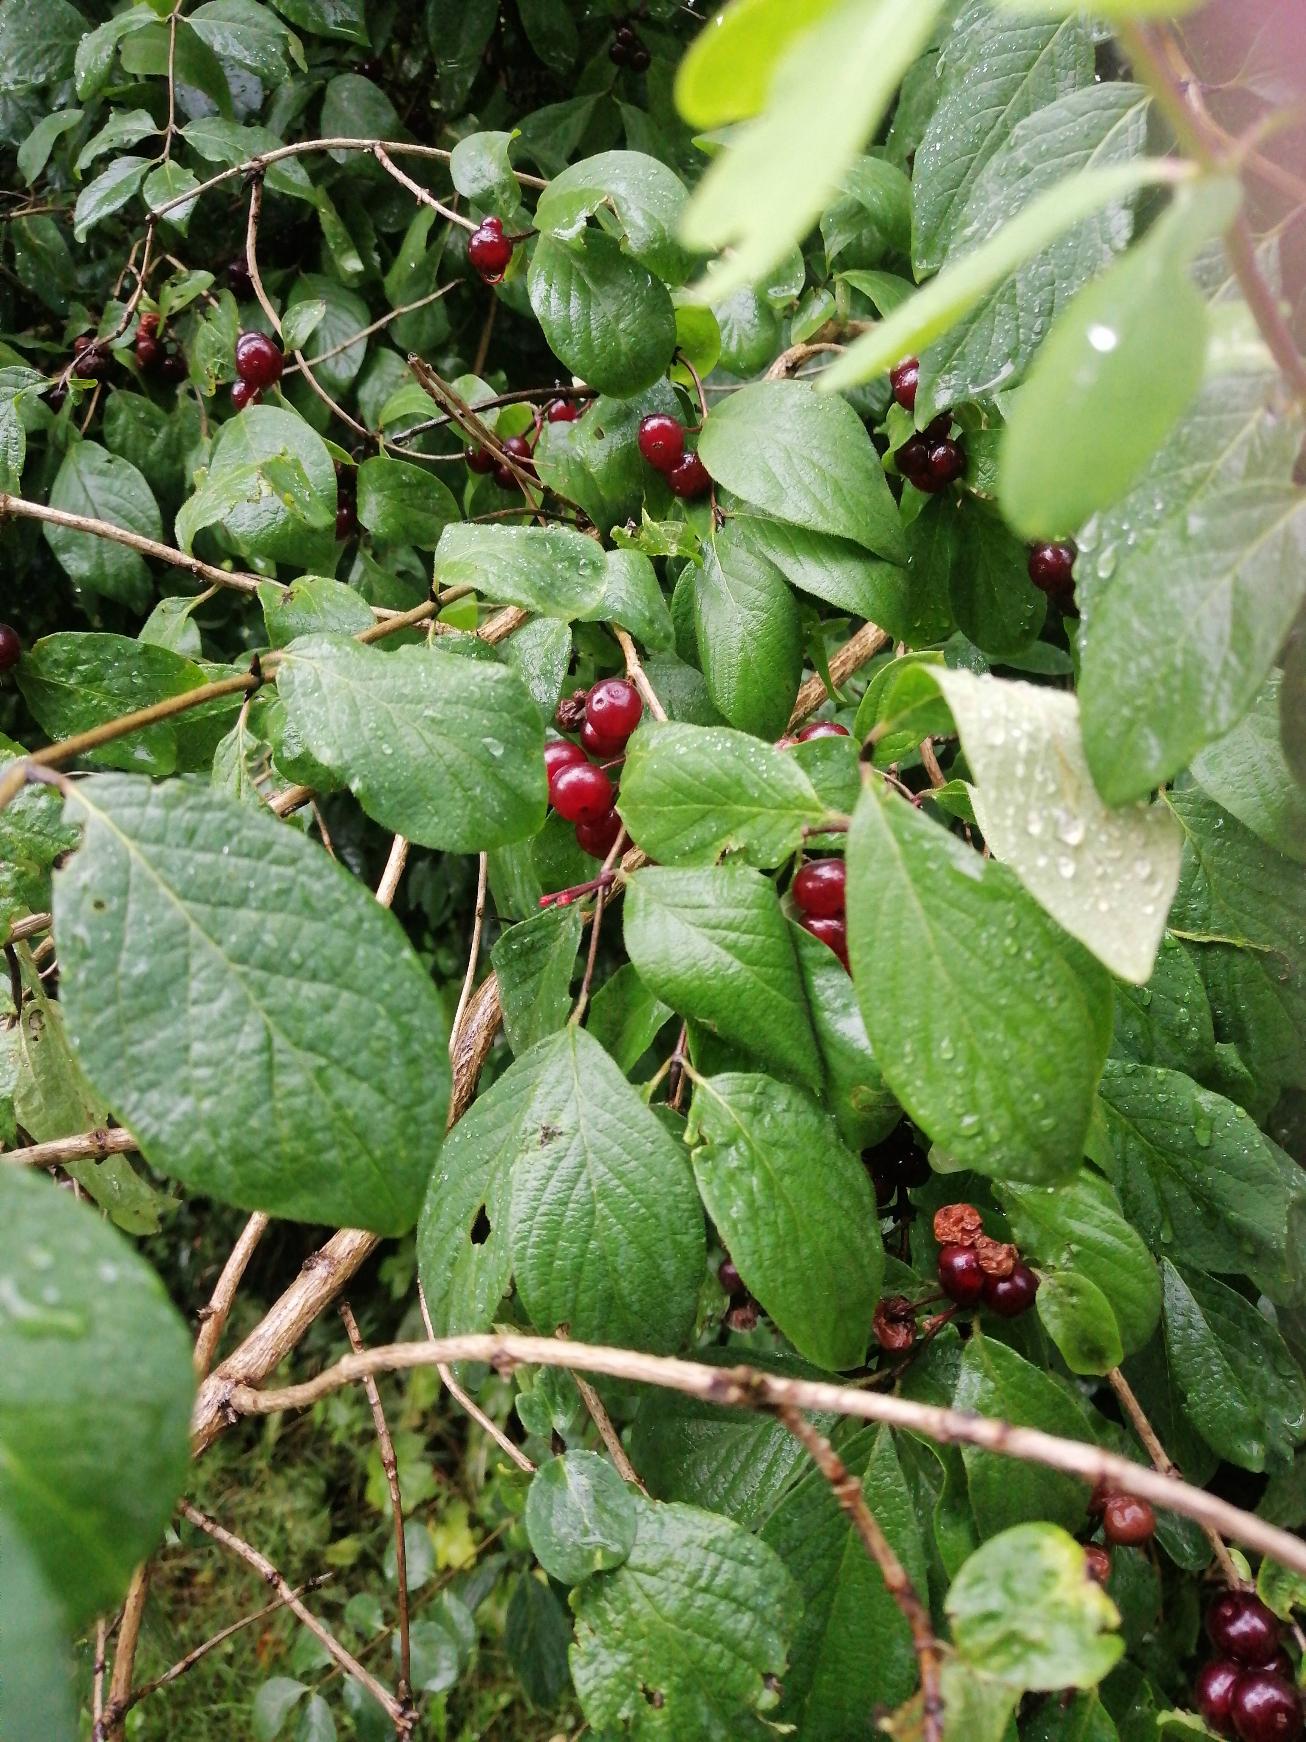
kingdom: Plantae
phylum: Tracheophyta
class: Magnoliopsida
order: Dipsacales
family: Caprifoliaceae
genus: Lonicera
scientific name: Lonicera xylosteum
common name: Dunet gedeblad
